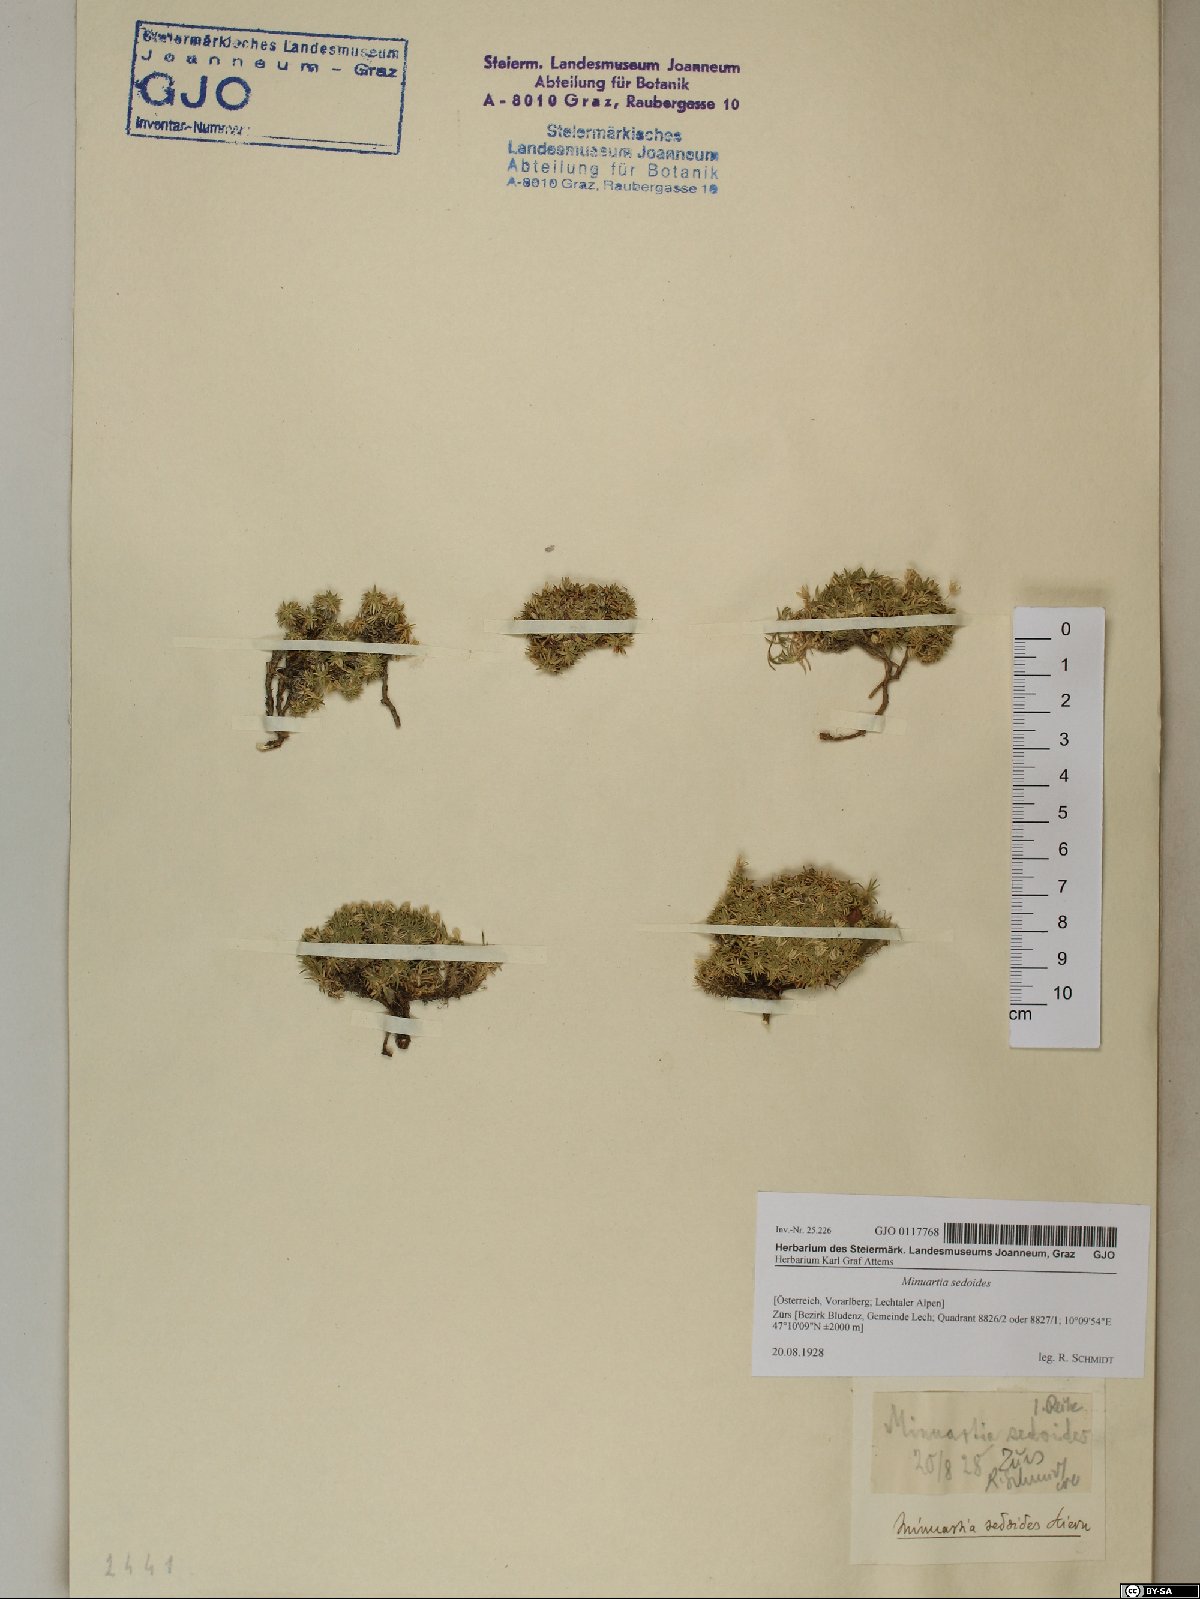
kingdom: Plantae
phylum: Tracheophyta
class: Magnoliopsida
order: Caryophyllales
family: Caryophyllaceae
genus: Cherleria
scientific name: Cherleria sedoides
